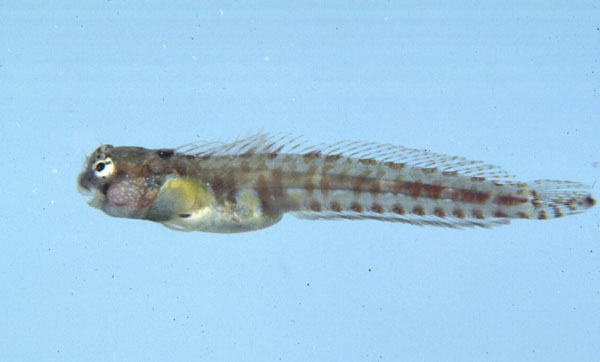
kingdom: Animalia
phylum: Chordata
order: Perciformes
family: Blenniidae
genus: Alloblennius
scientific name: Alloblennius parvus
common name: Dwarf blenny
